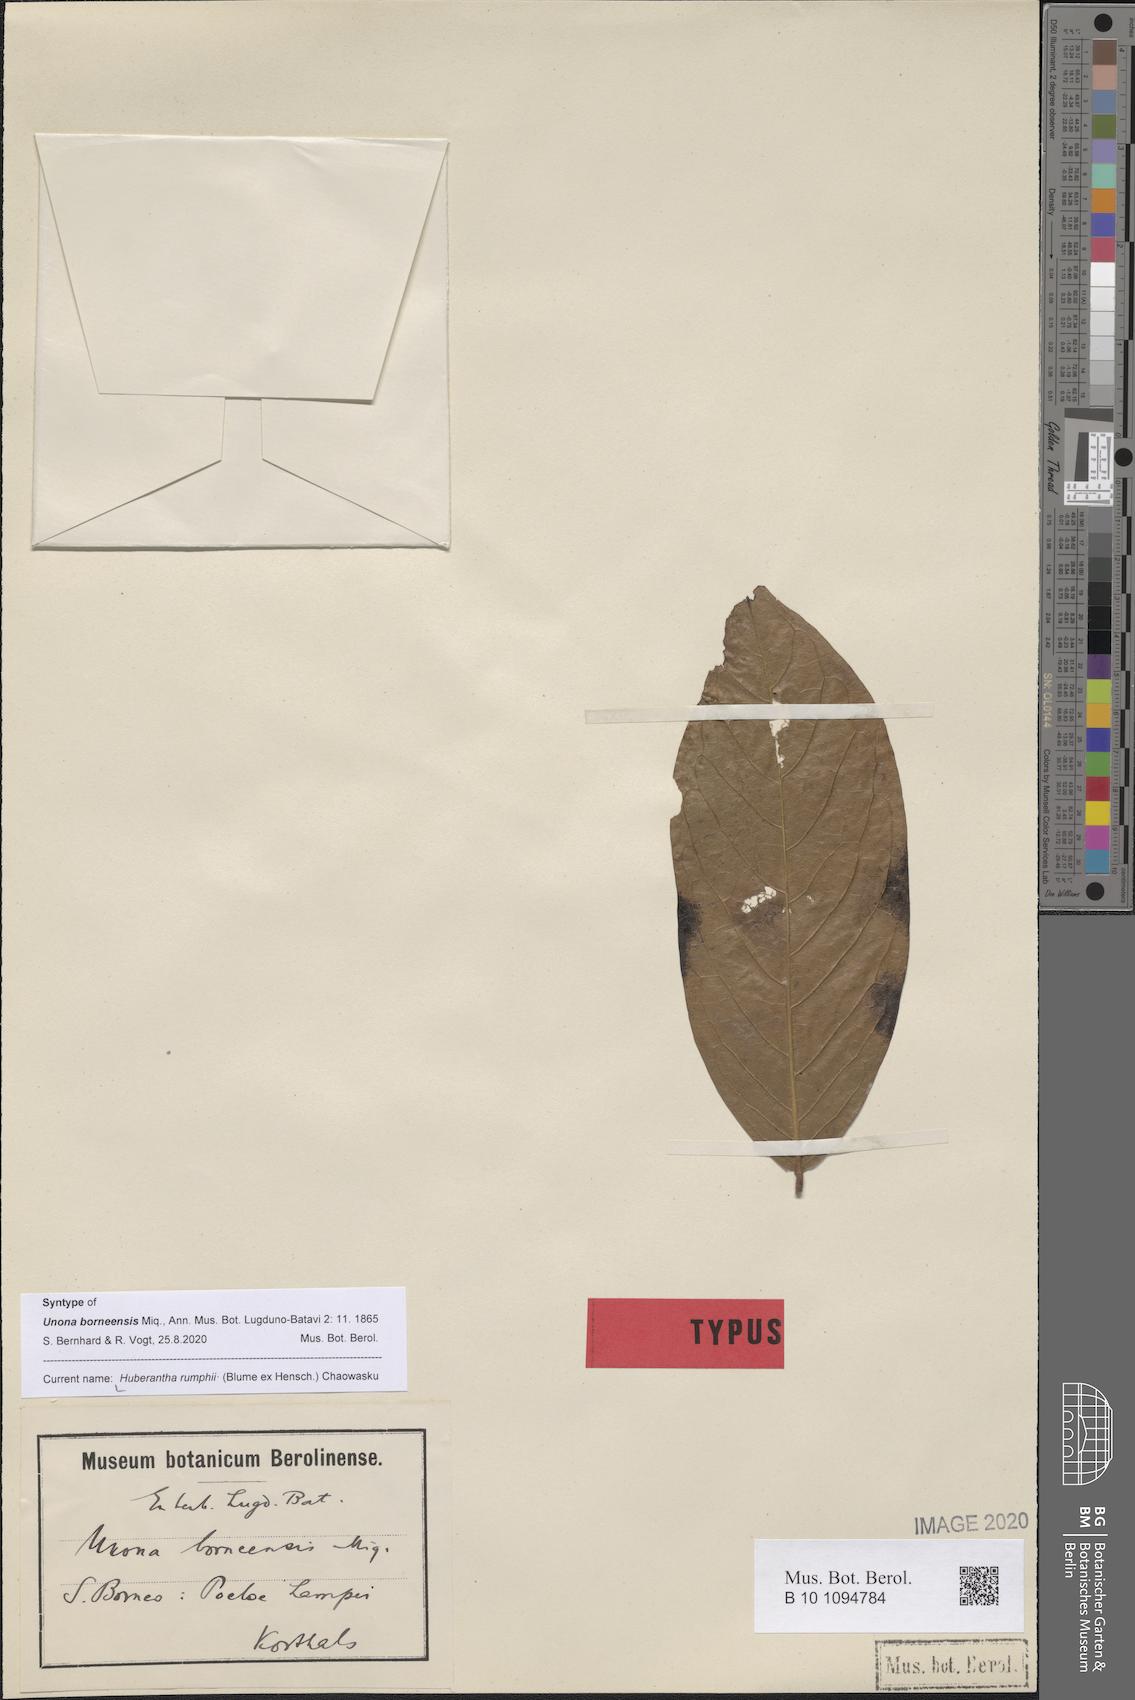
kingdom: Plantae
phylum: Tracheophyta
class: Magnoliopsida
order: Magnoliales
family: Annonaceae
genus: Hubera
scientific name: Hubera rumphii
